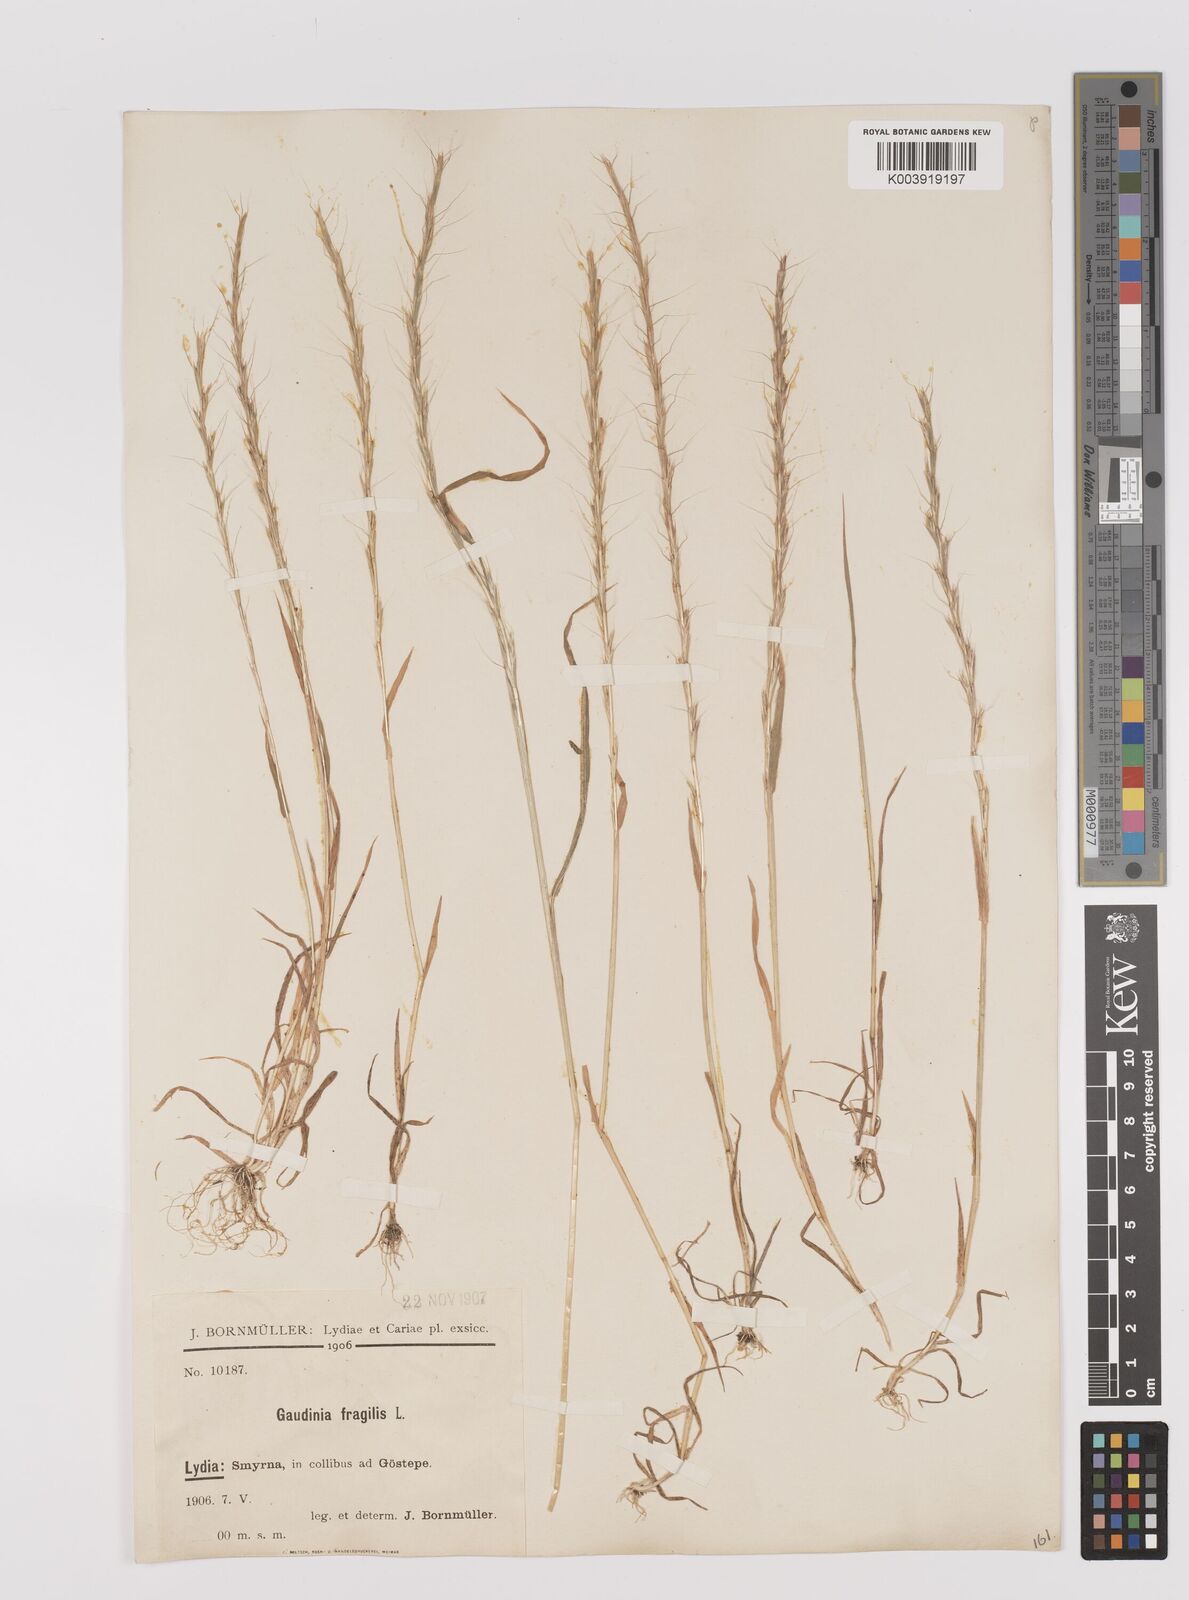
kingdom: Plantae
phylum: Tracheophyta
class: Liliopsida
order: Poales
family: Poaceae
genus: Gaudinia
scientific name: Gaudinia fragilis
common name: French oat-grass
